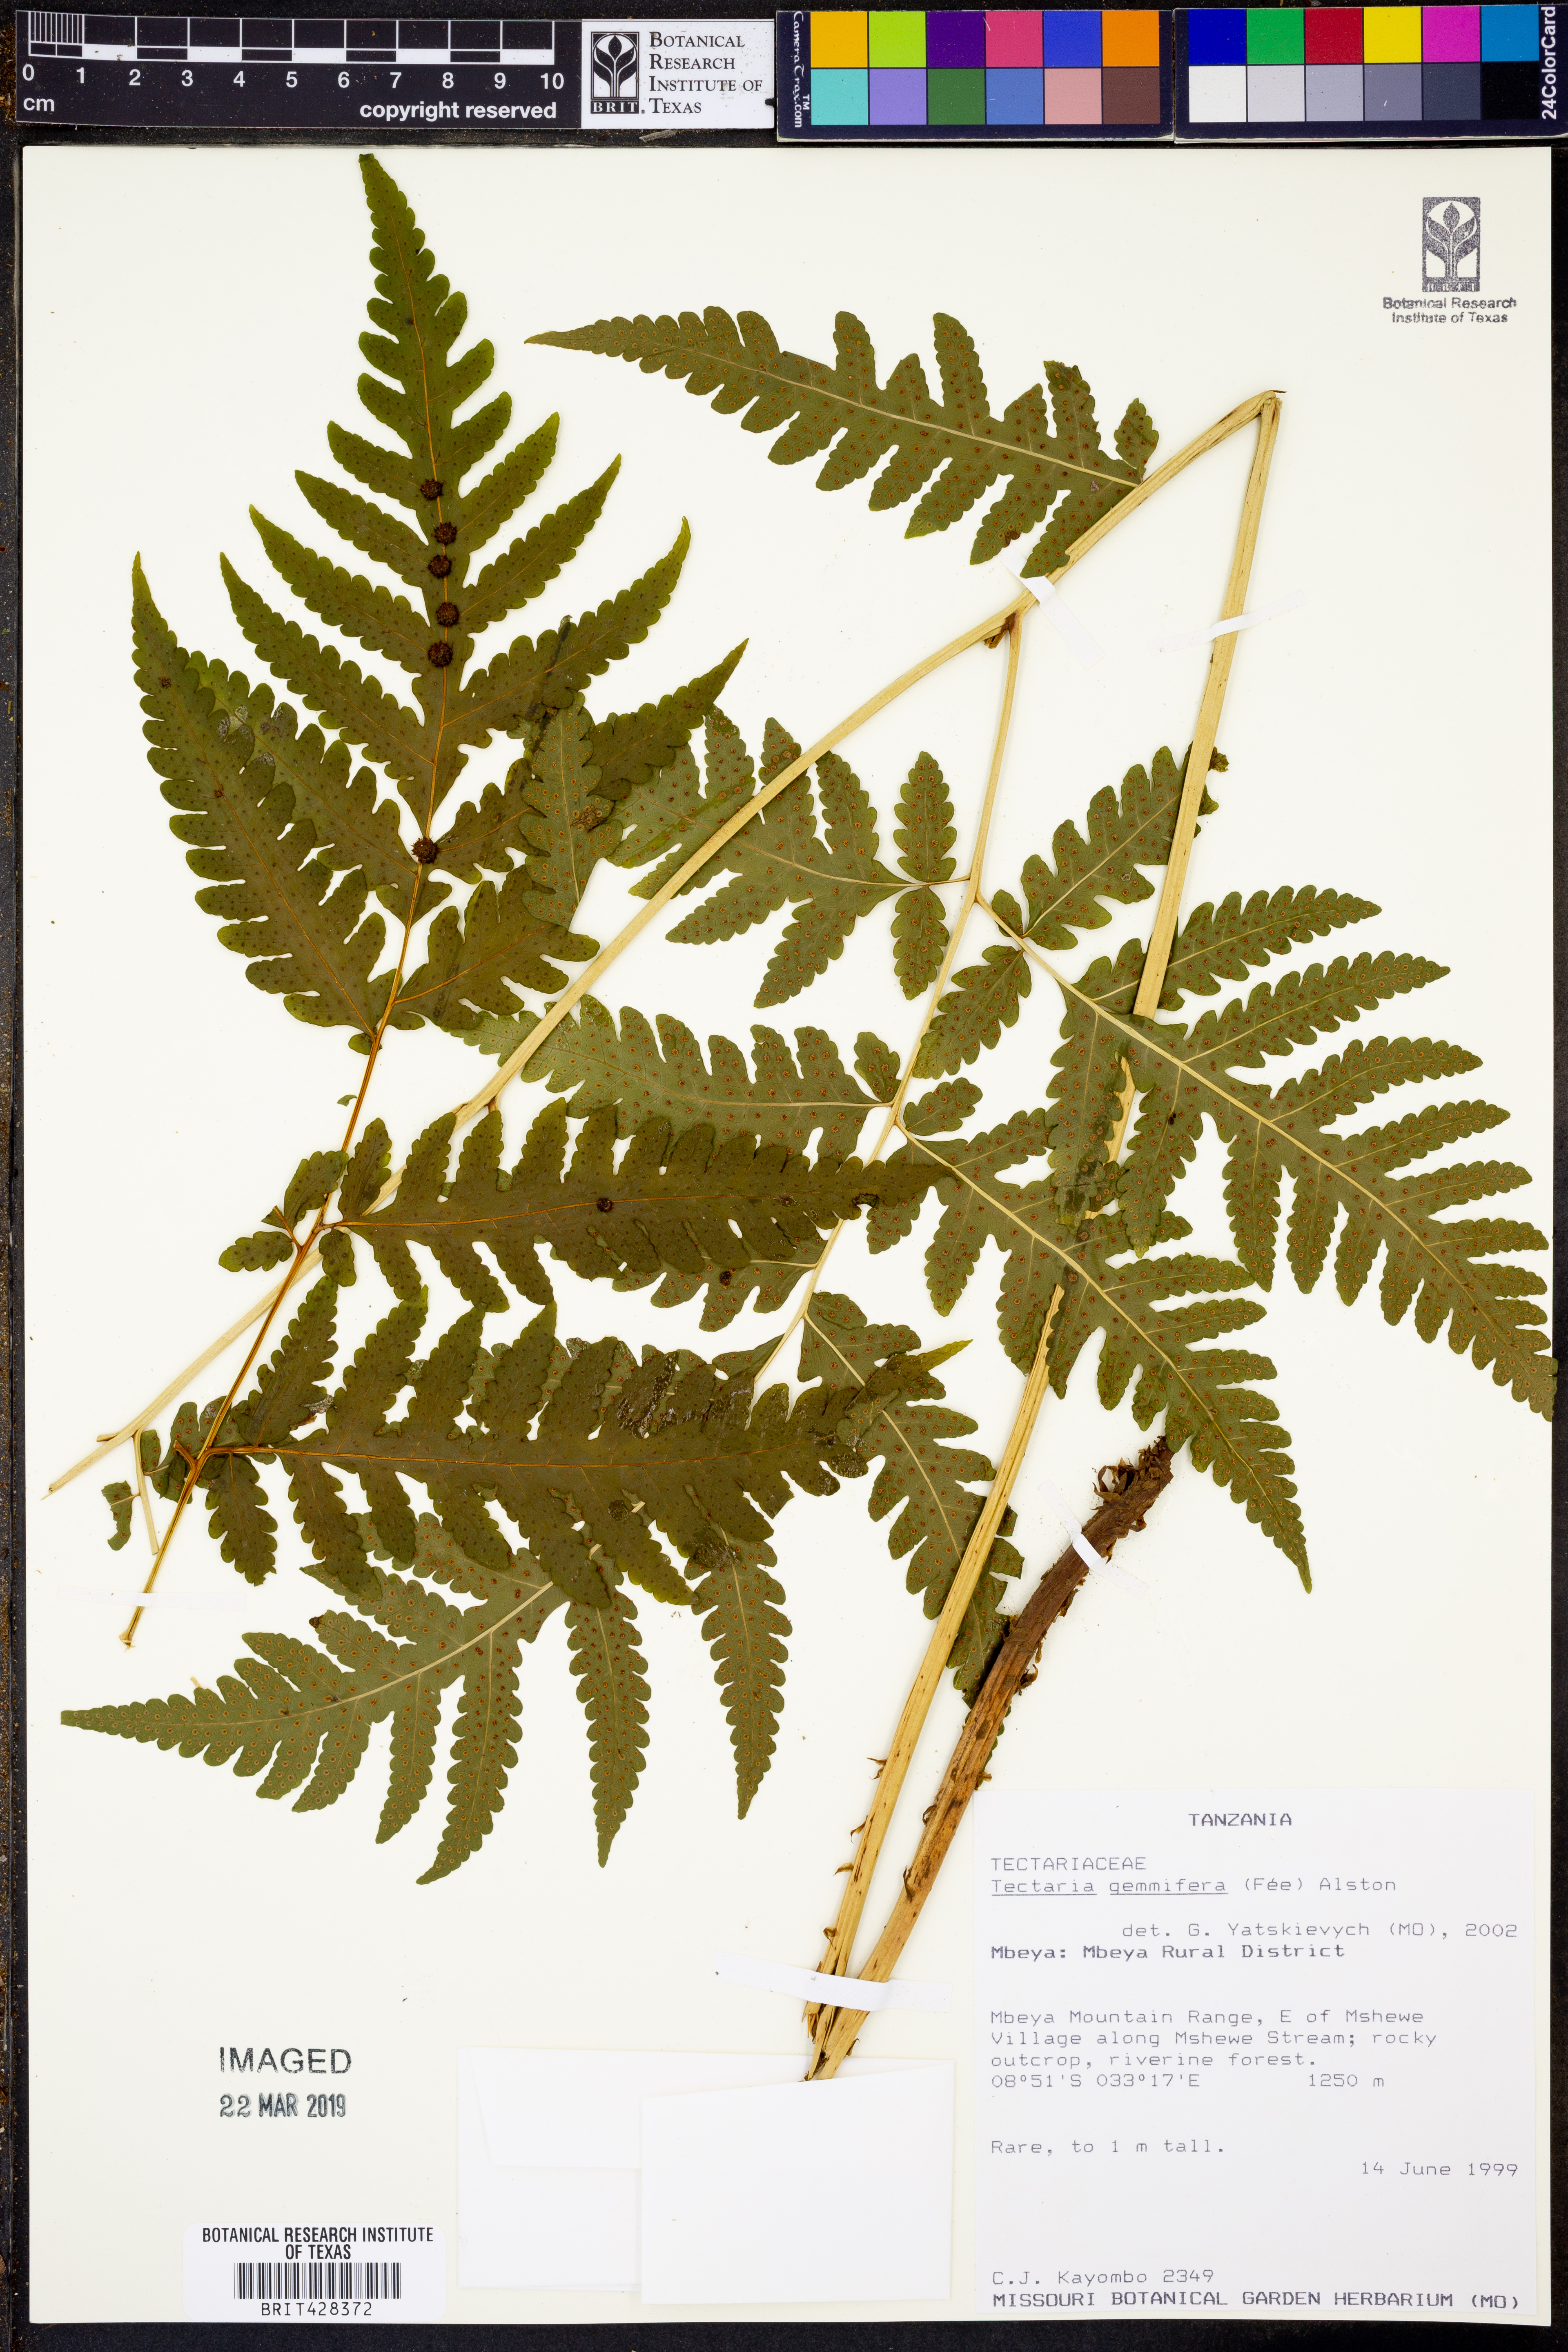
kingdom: Plantae
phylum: Tracheophyta
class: Polypodiopsida
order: Polypodiales
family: Tectariaceae
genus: Tectaria
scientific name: Tectaria fauriei
